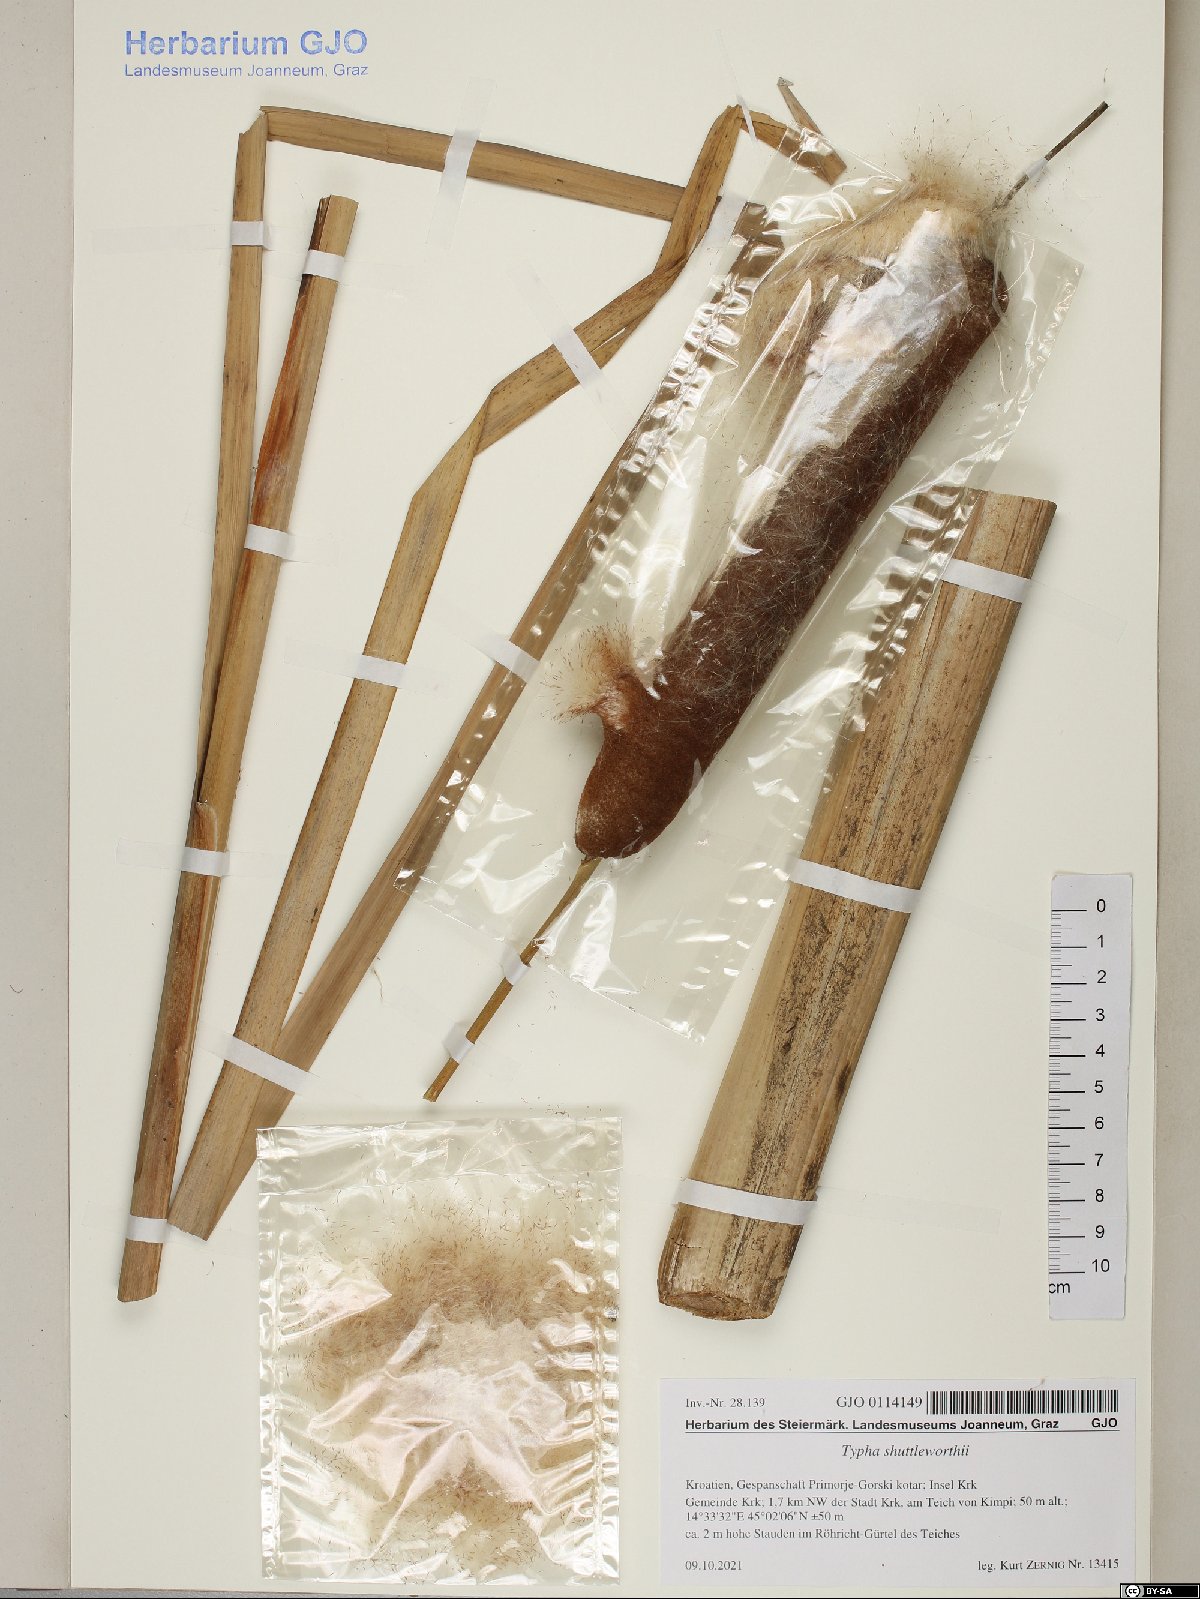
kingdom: Plantae
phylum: Tracheophyta
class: Liliopsida
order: Poales
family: Typhaceae
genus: Typha
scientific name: Typha latifolia
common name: Broadleaf cattail
